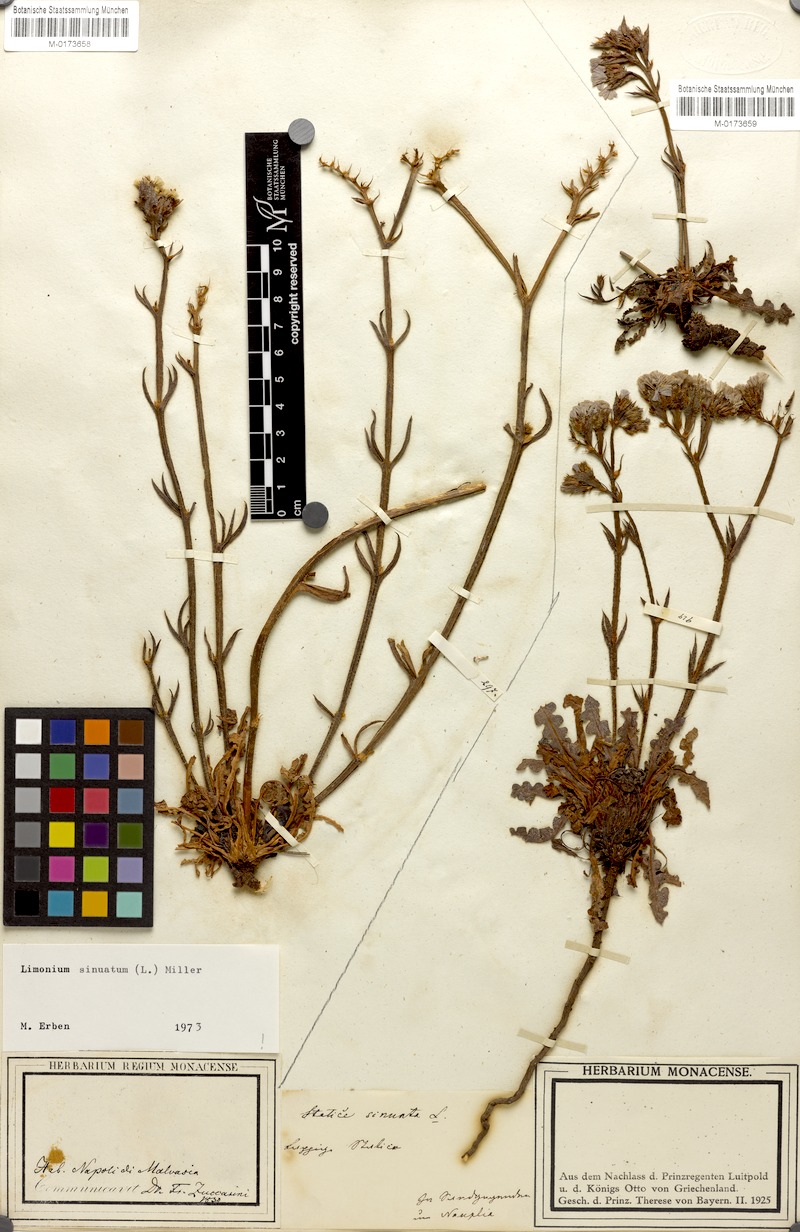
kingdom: Plantae
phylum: Tracheophyta
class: Magnoliopsida
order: Caryophyllales
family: Plumbaginaceae
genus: Limonium
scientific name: Limonium sinuatum
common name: Statice
